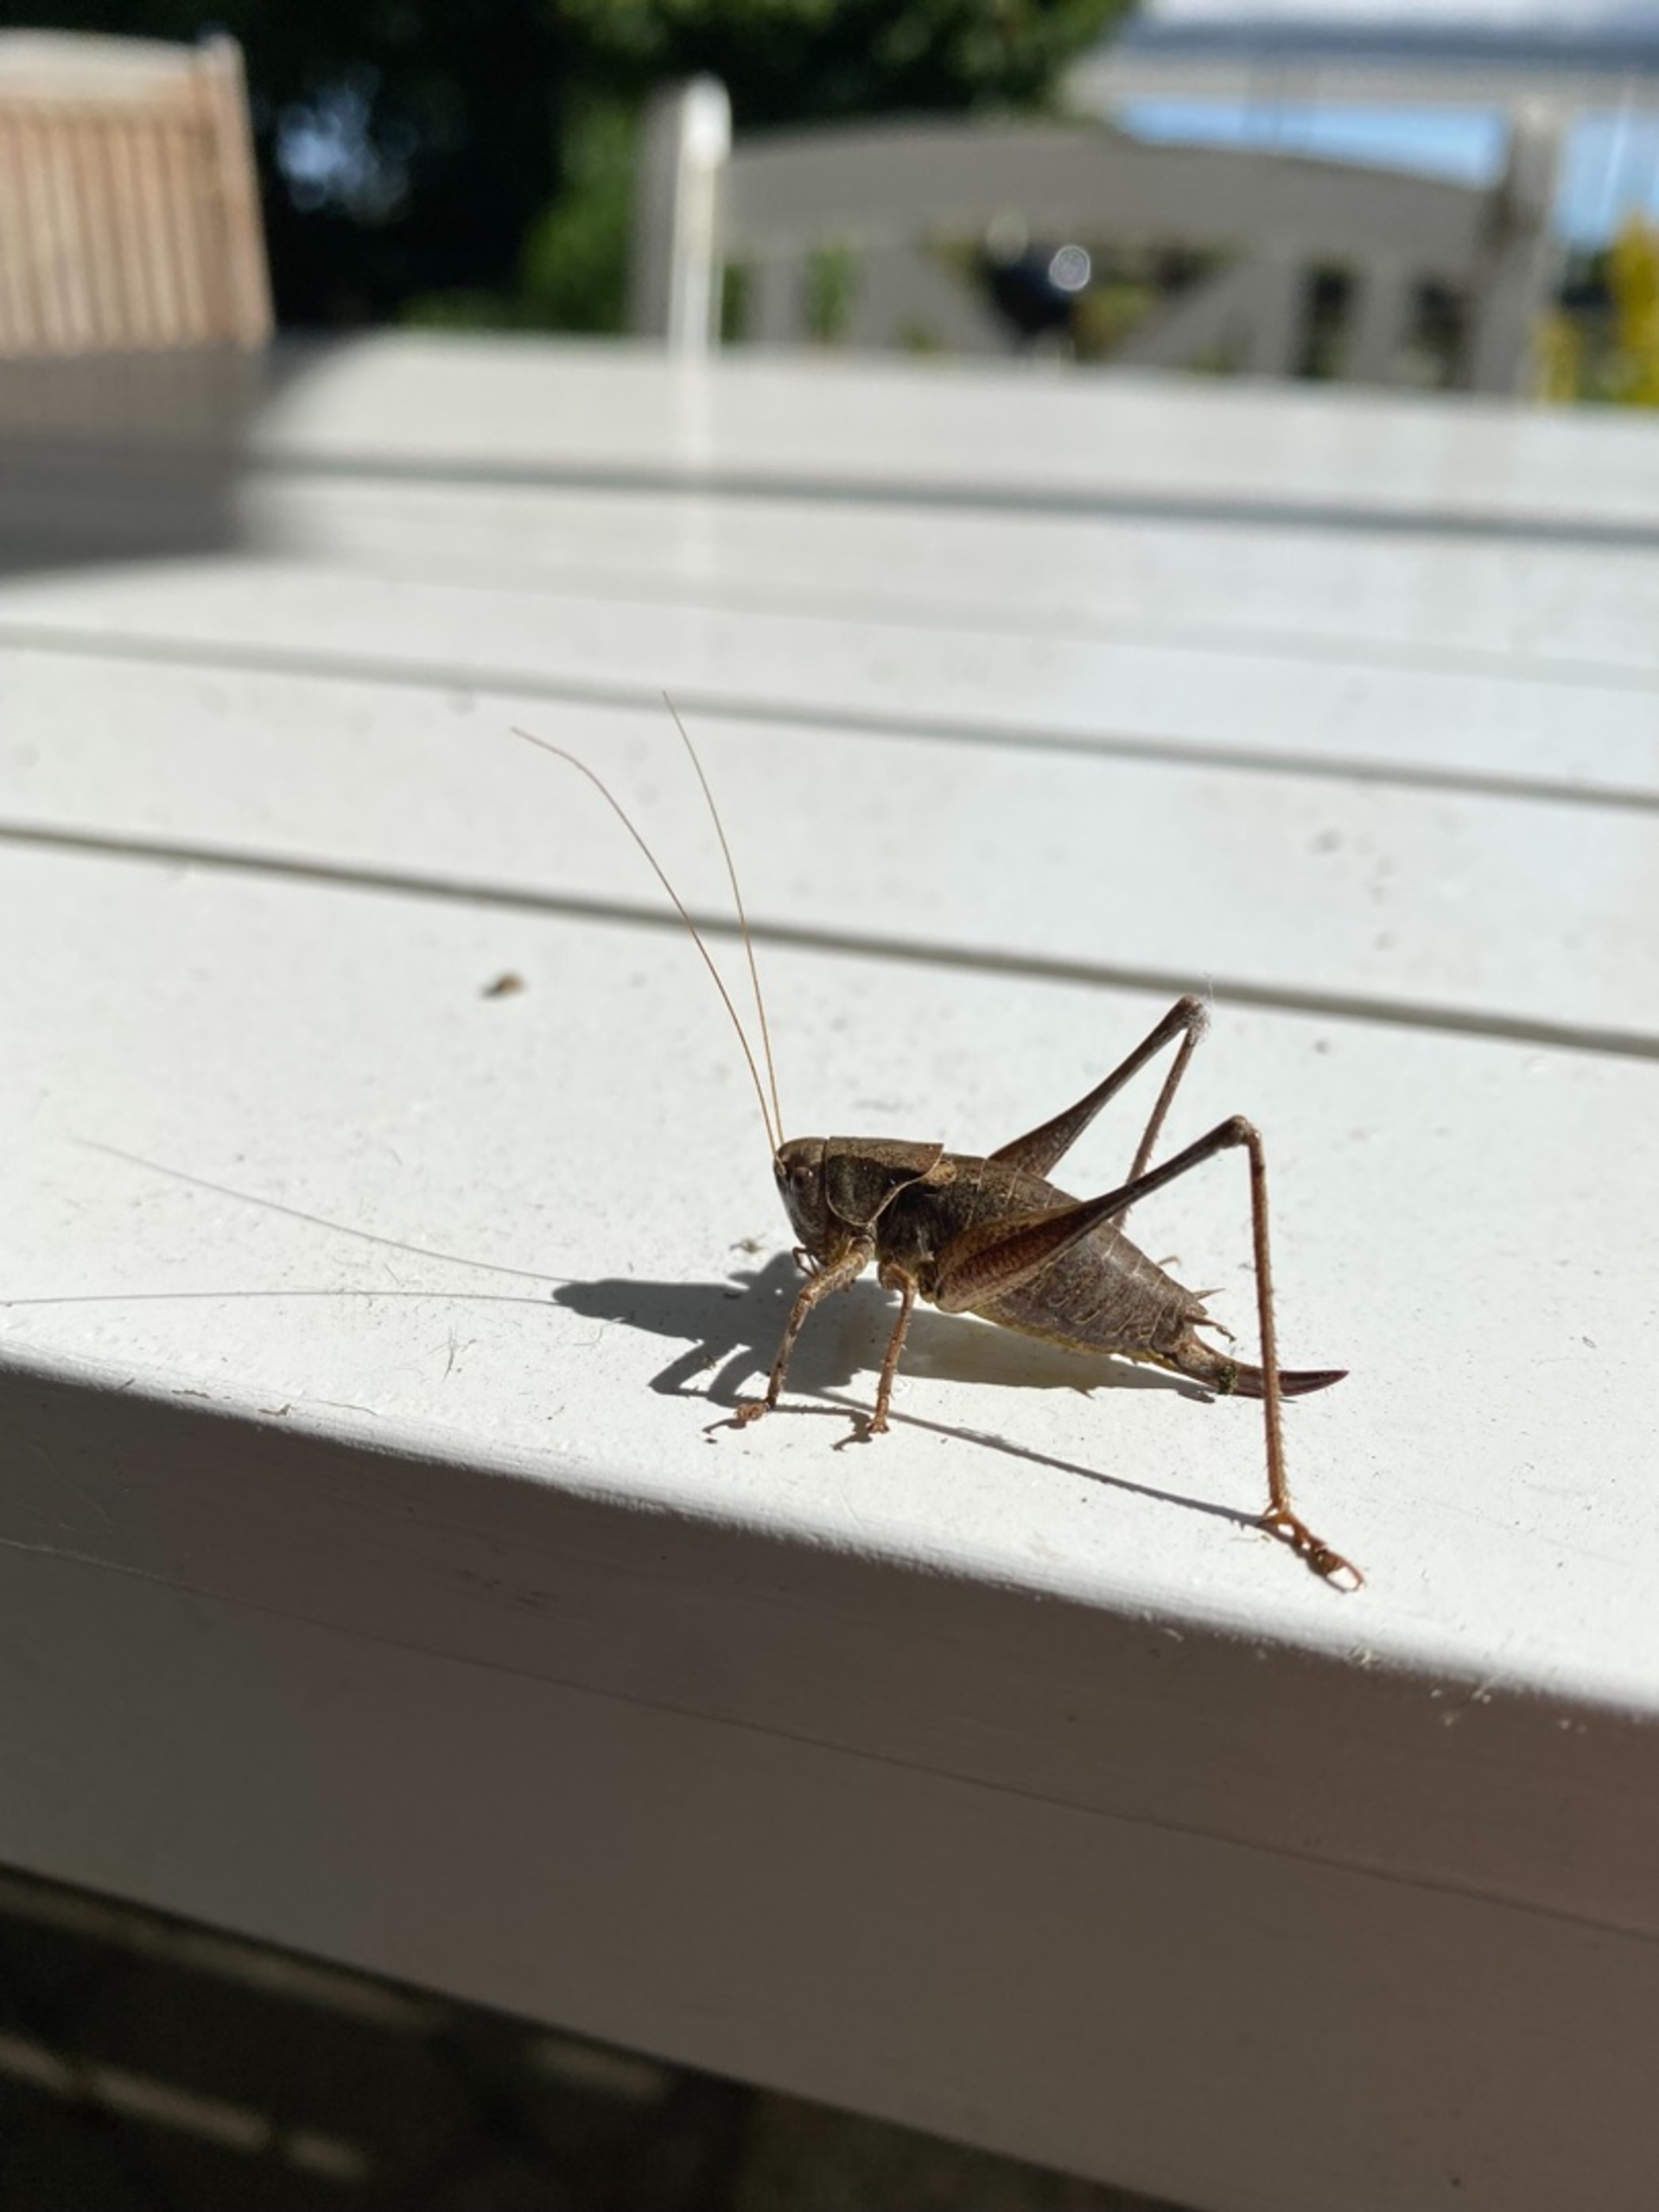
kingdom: Animalia
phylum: Arthropoda
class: Insecta
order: Orthoptera
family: Tettigoniidae
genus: Pholidoptera
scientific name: Pholidoptera griseoaptera
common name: Buskgræshoppe
